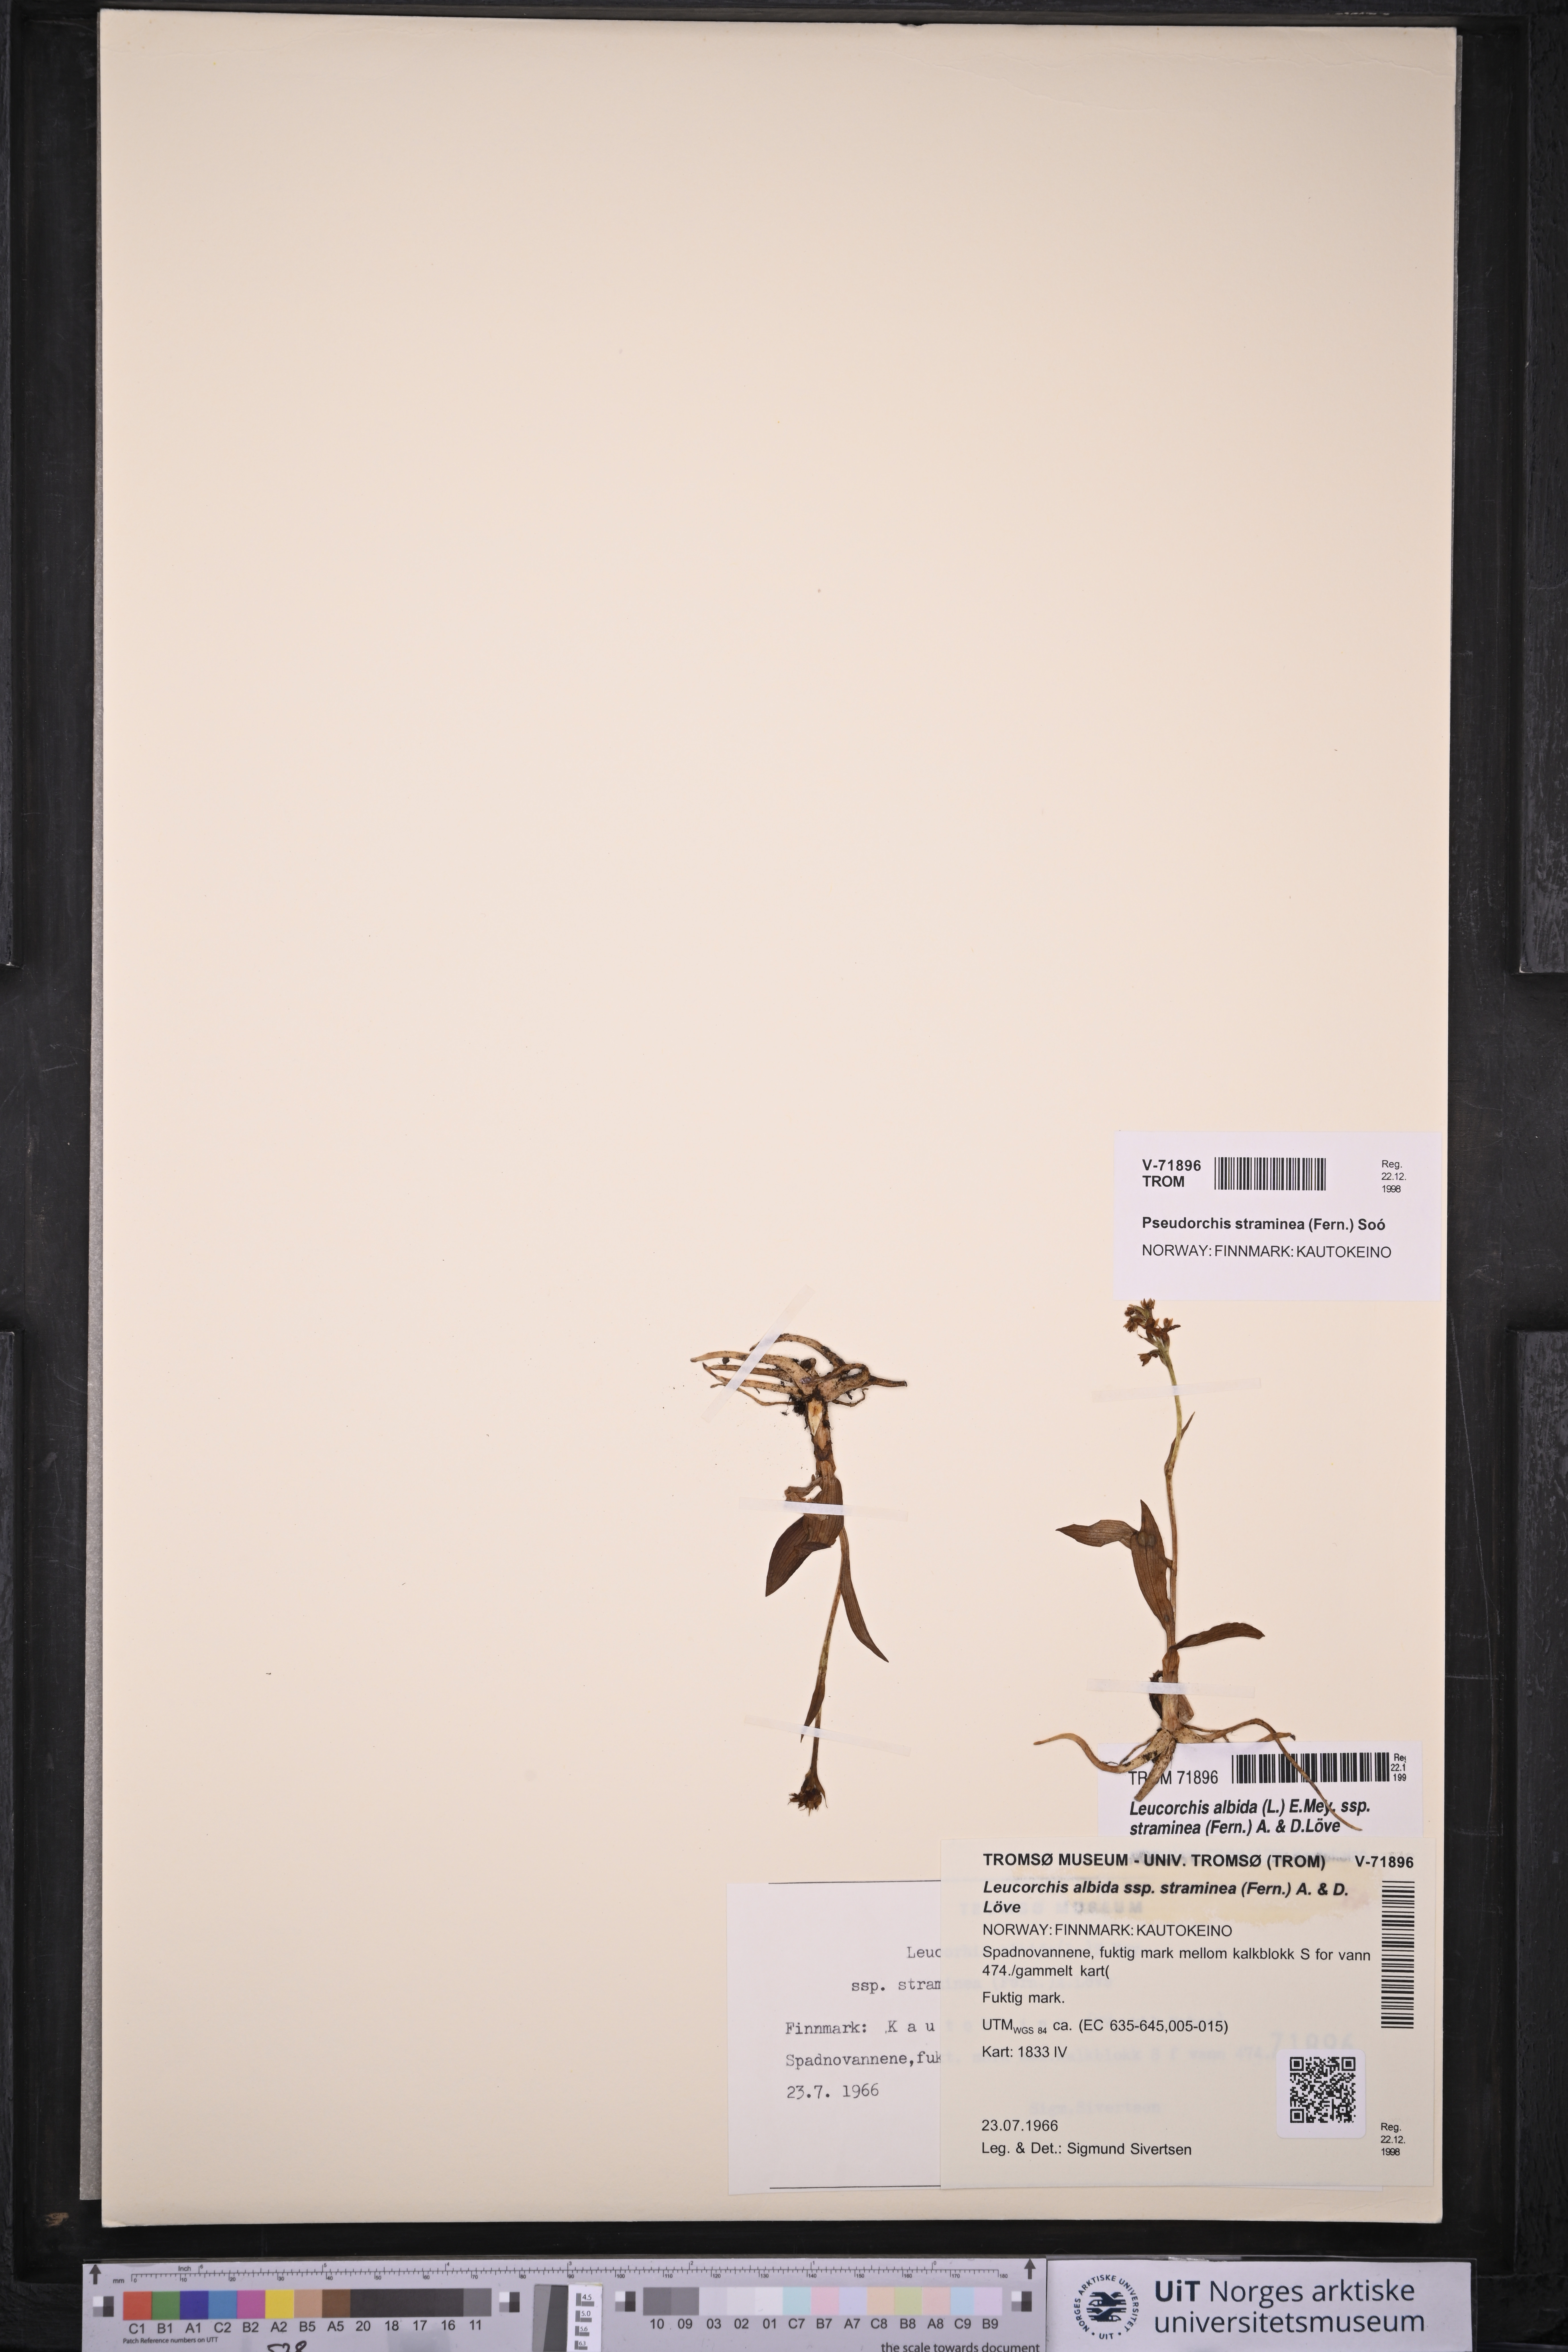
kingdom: Plantae
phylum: Tracheophyta
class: Liliopsida
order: Asparagales
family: Orchidaceae
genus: Pseudorchis
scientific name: Pseudorchis straminea
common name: Vanilla-scented bog orchid
